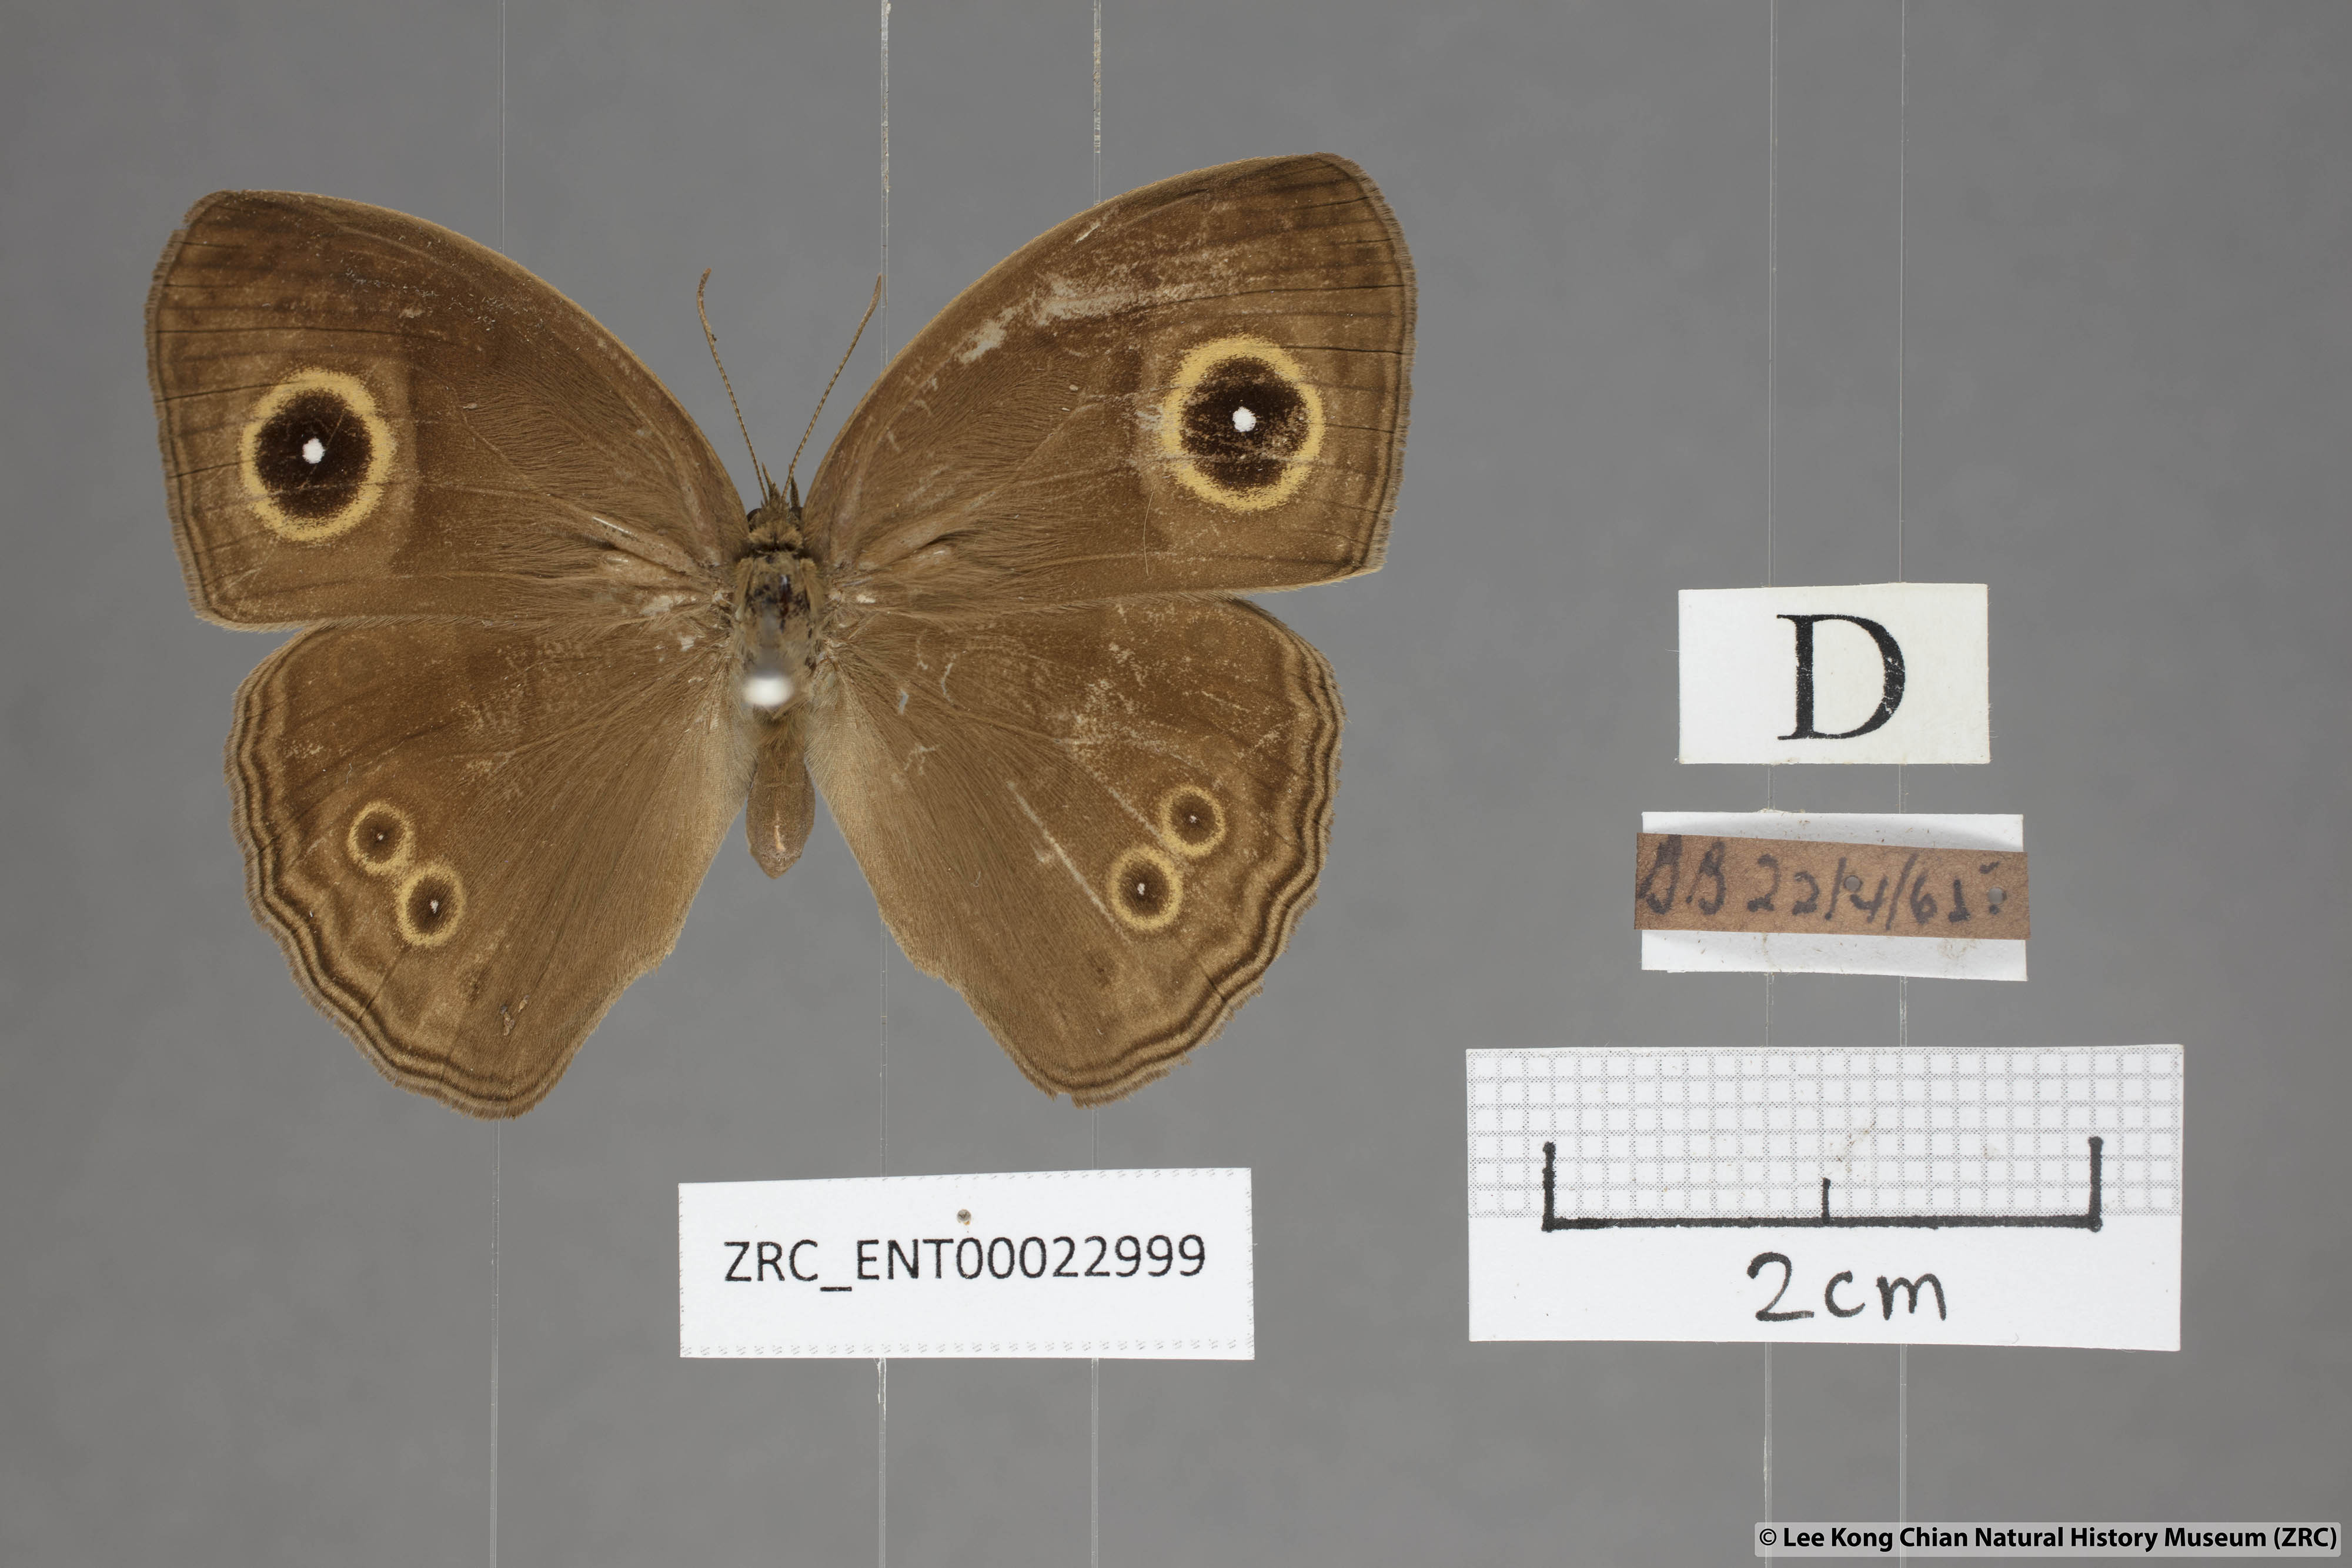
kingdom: Animalia
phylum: Arthropoda
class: Insecta
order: Lepidoptera
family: Nymphalidae
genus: Mycalesis
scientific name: Mycalesis perseoides
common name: Burmese bushbrown
